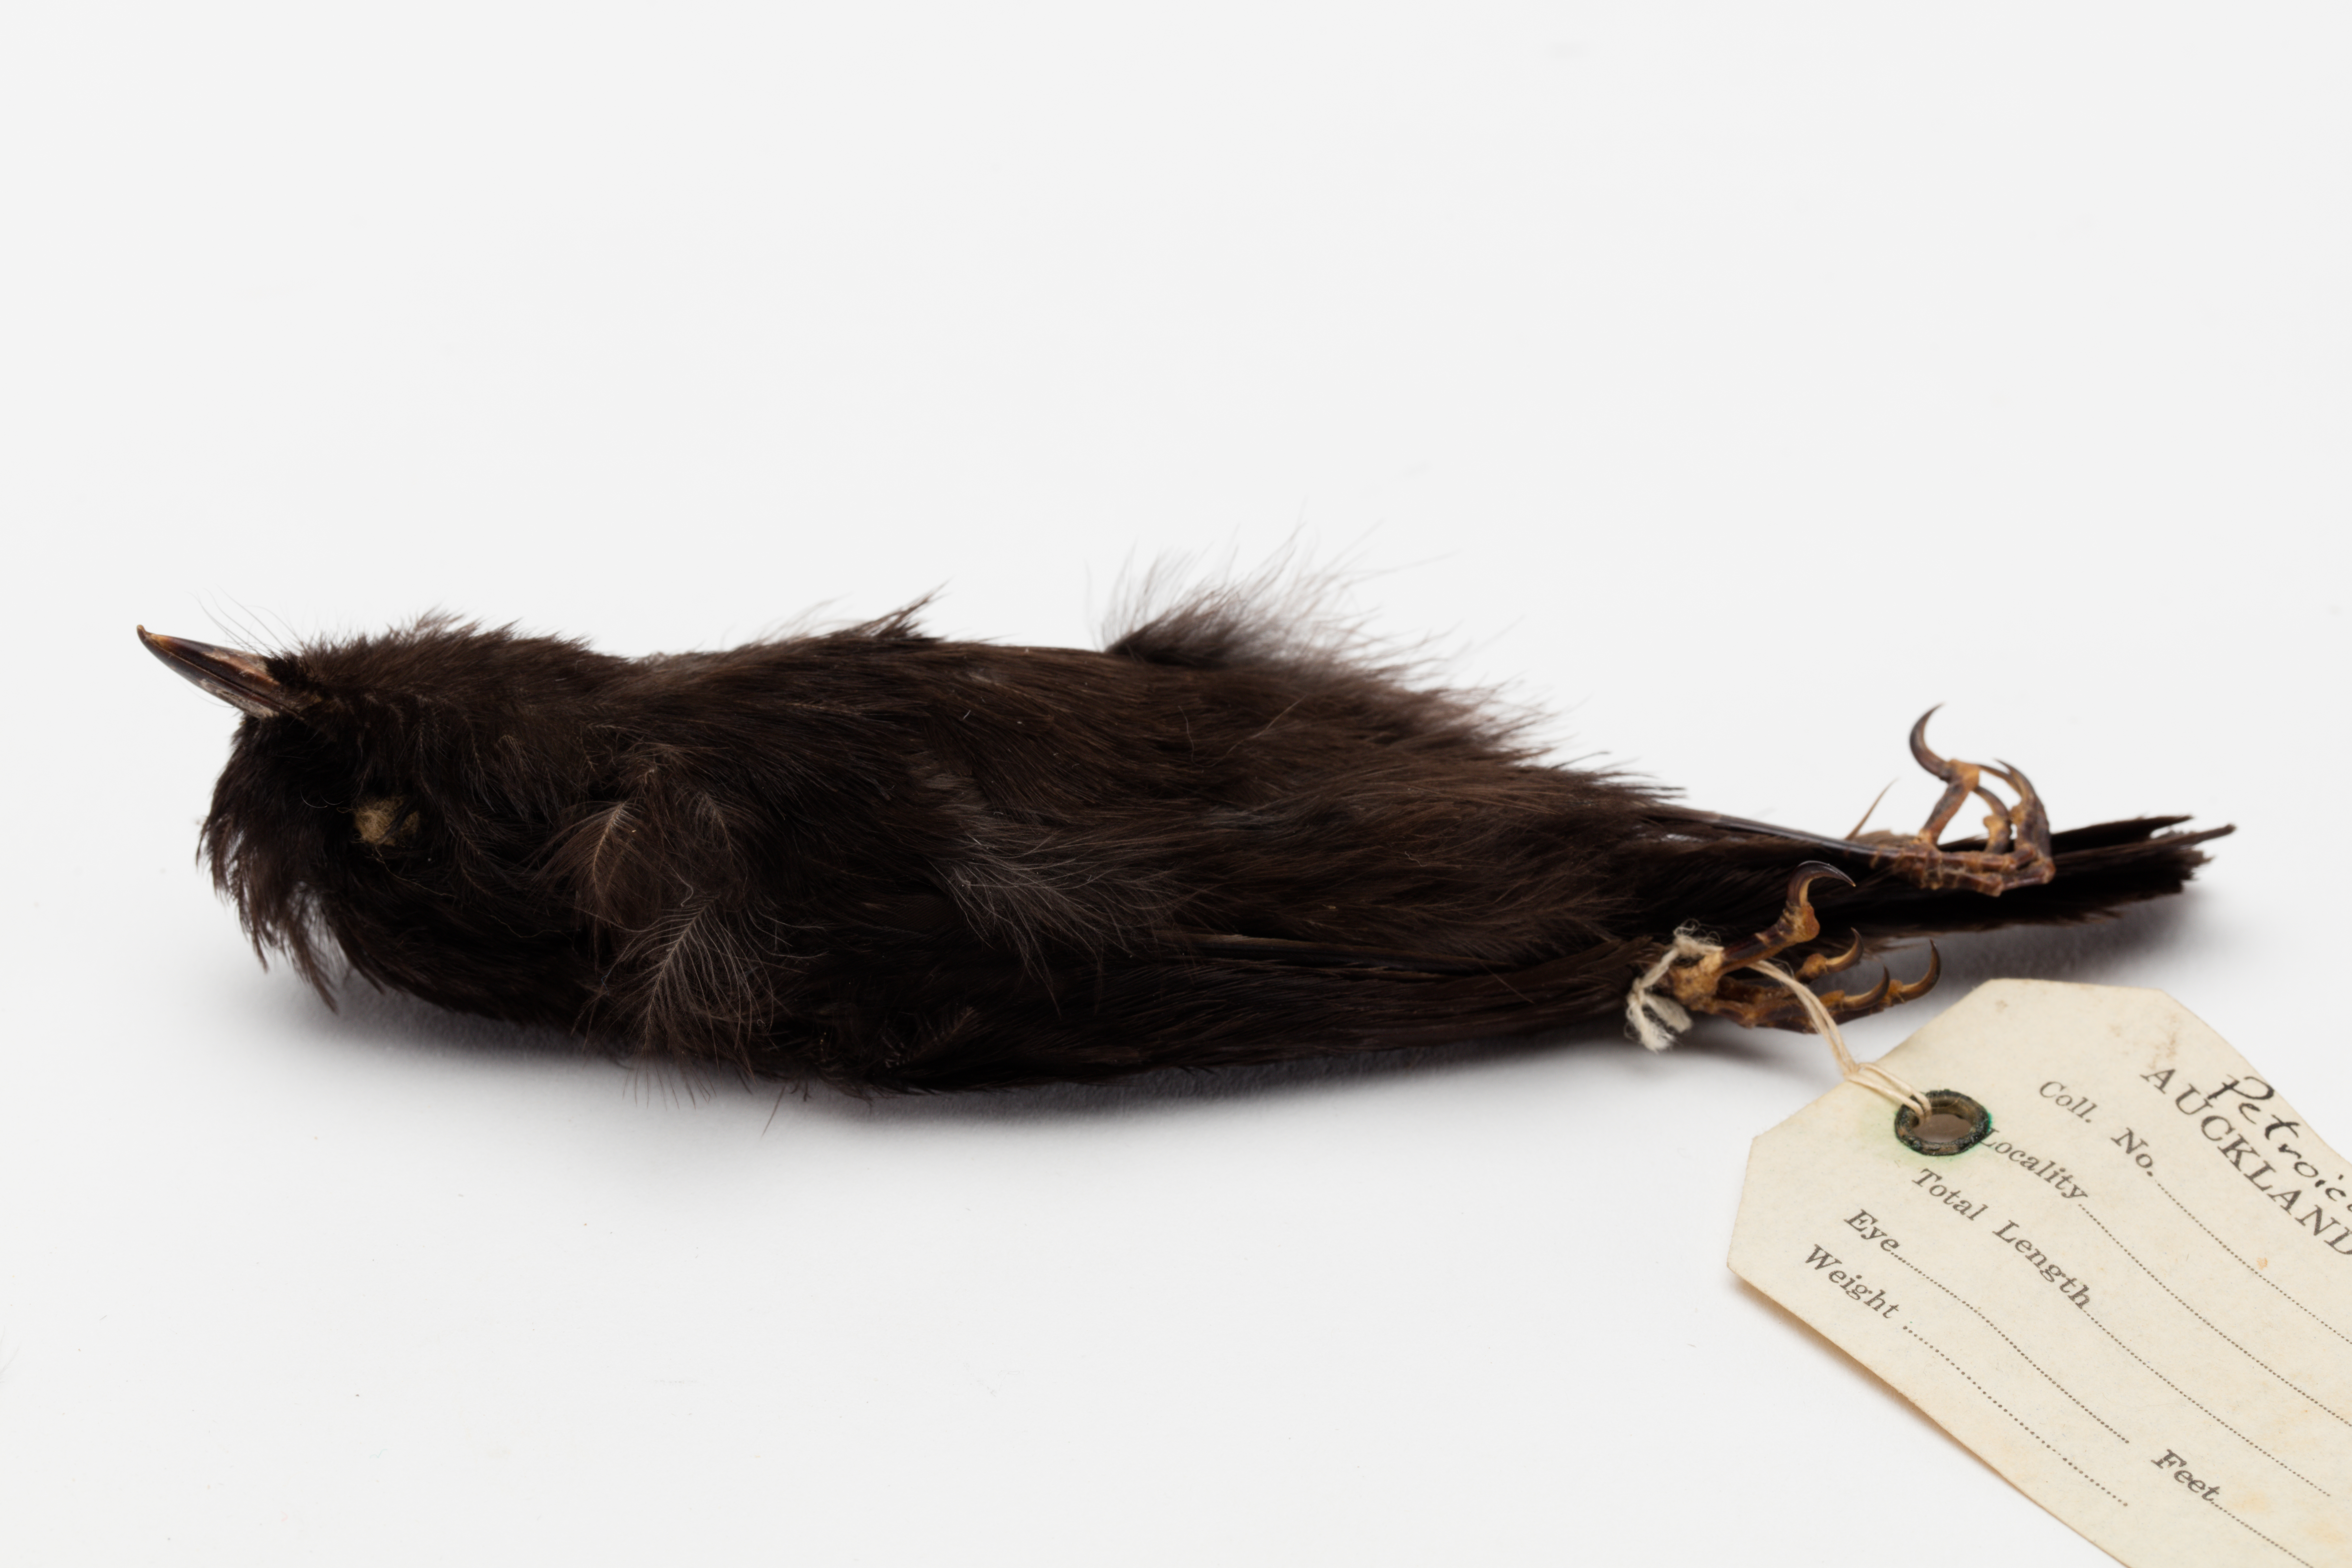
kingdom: Animalia
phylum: Chordata
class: Aves
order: Passeriformes
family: Petroicidae
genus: Petroica
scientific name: Petroica macrocephala
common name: Tomtit
